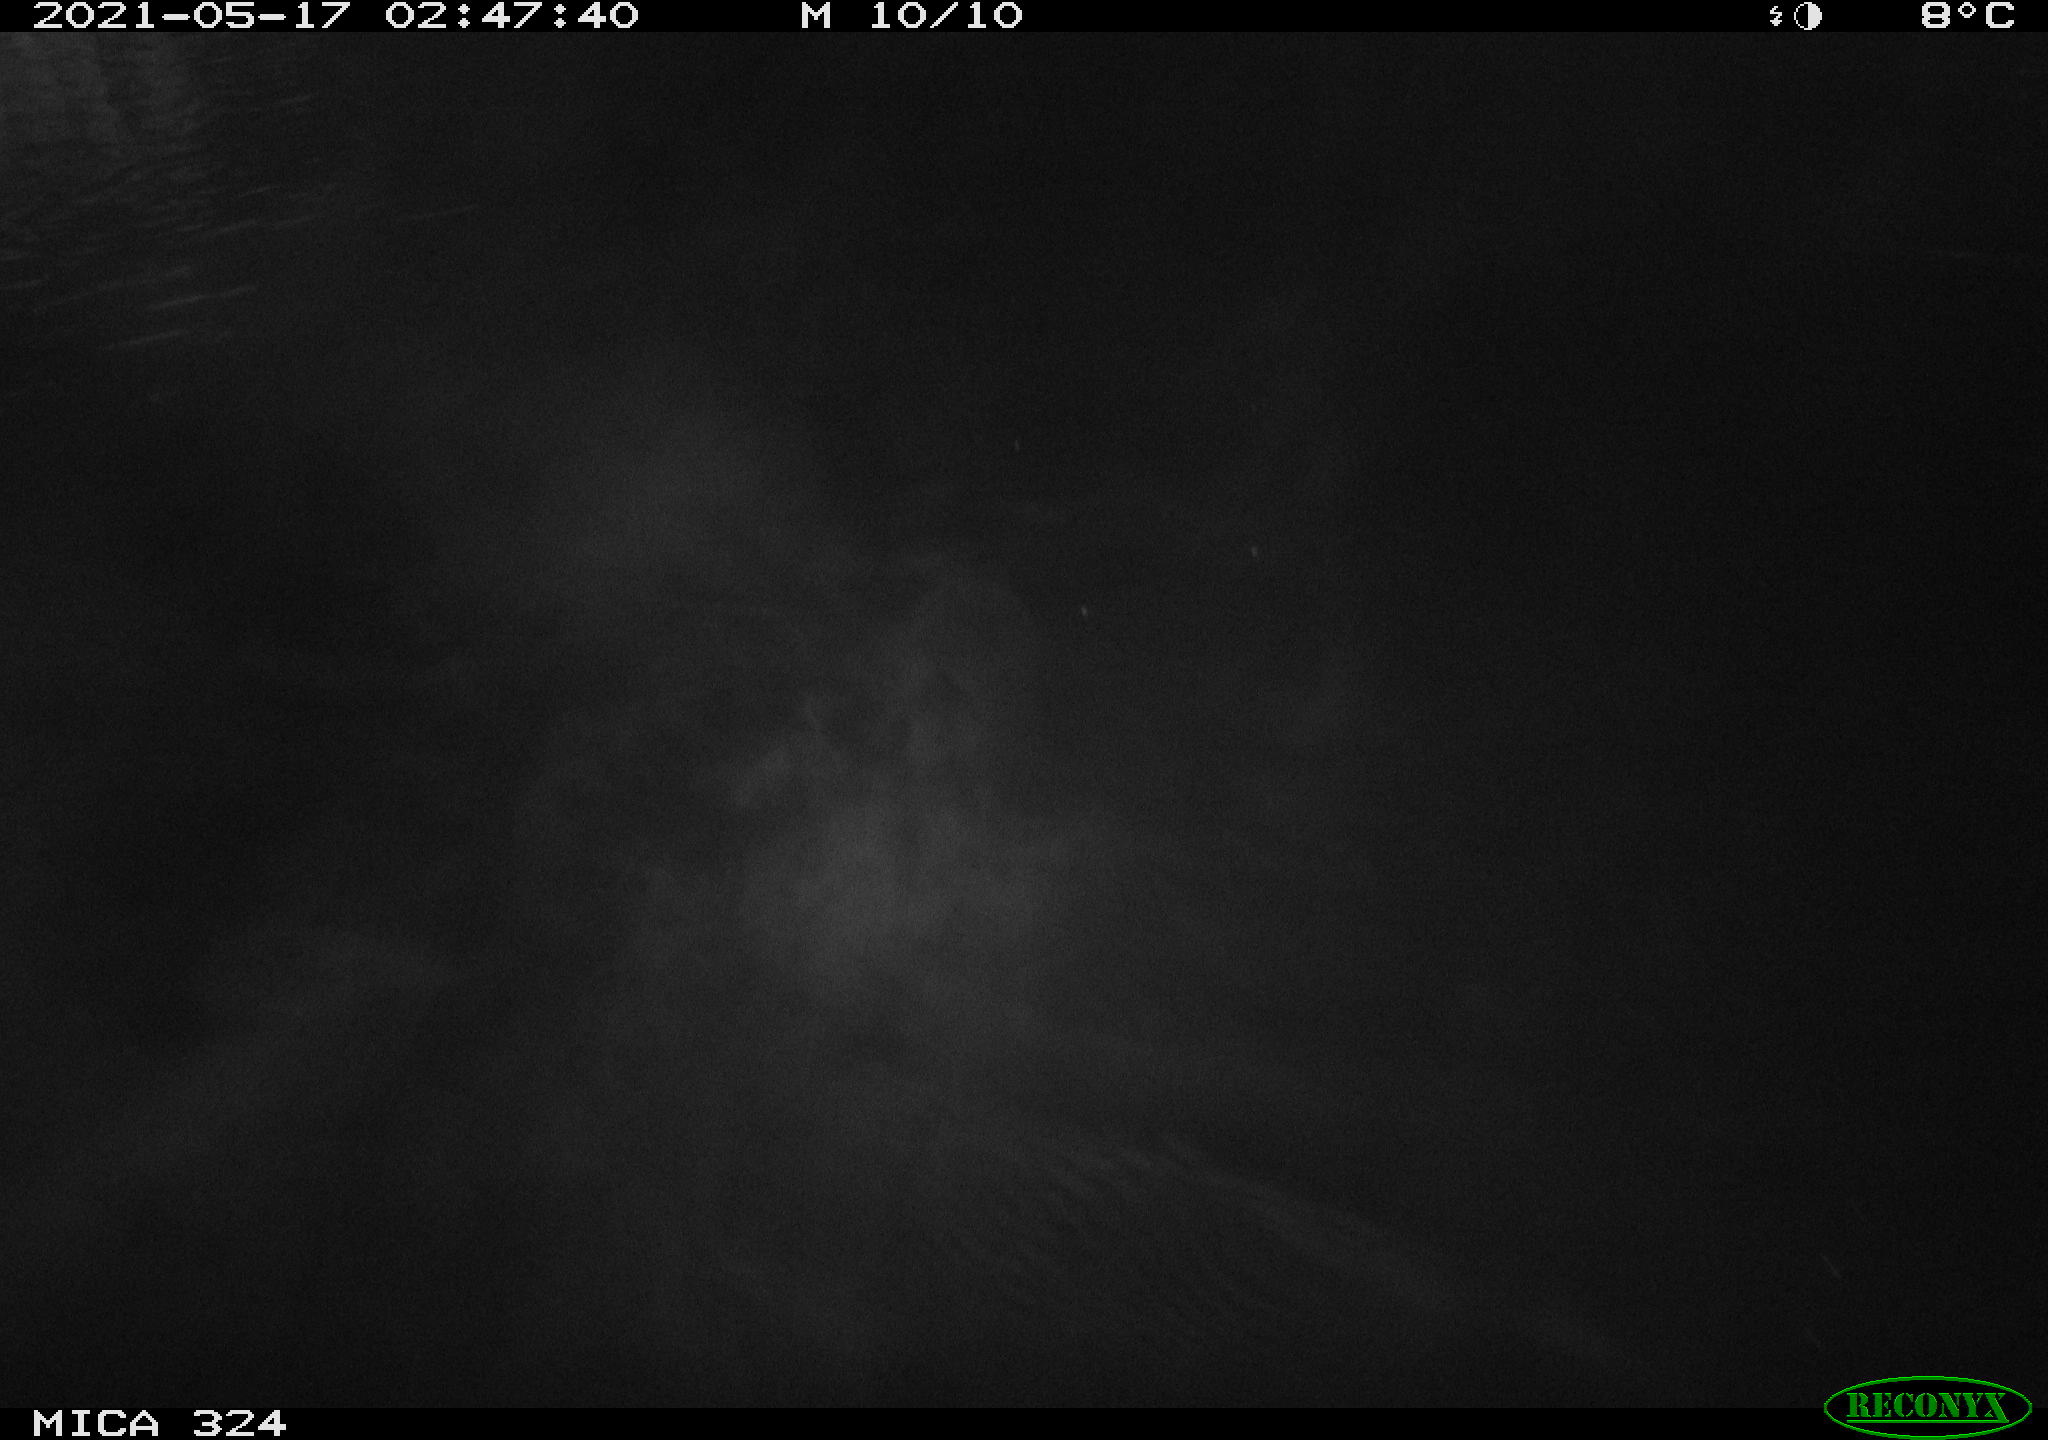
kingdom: Animalia
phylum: Chordata
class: Aves
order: Anseriformes
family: Anatidae
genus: Anas
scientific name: Anas platyrhynchos
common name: Mallard
